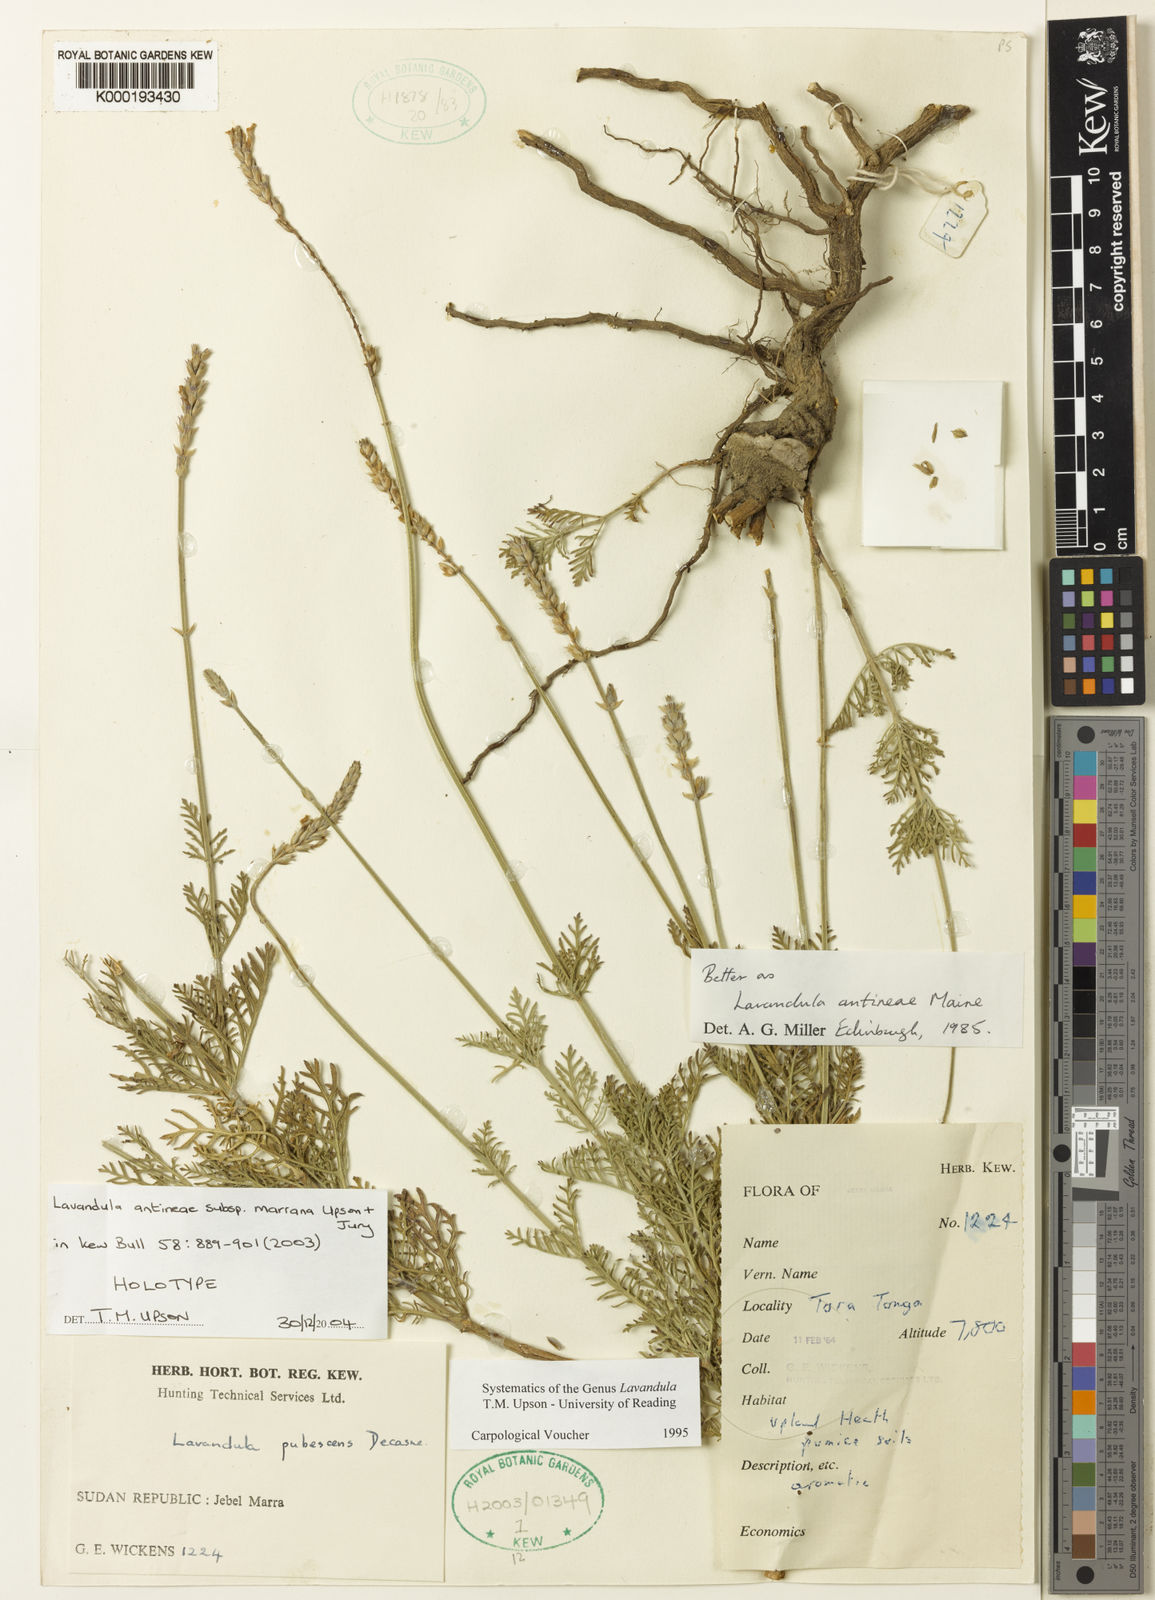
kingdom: Plantae
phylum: Tracheophyta
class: Magnoliopsida
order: Lamiales
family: Lamiaceae
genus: Lavandula
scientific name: Lavandula antineae
